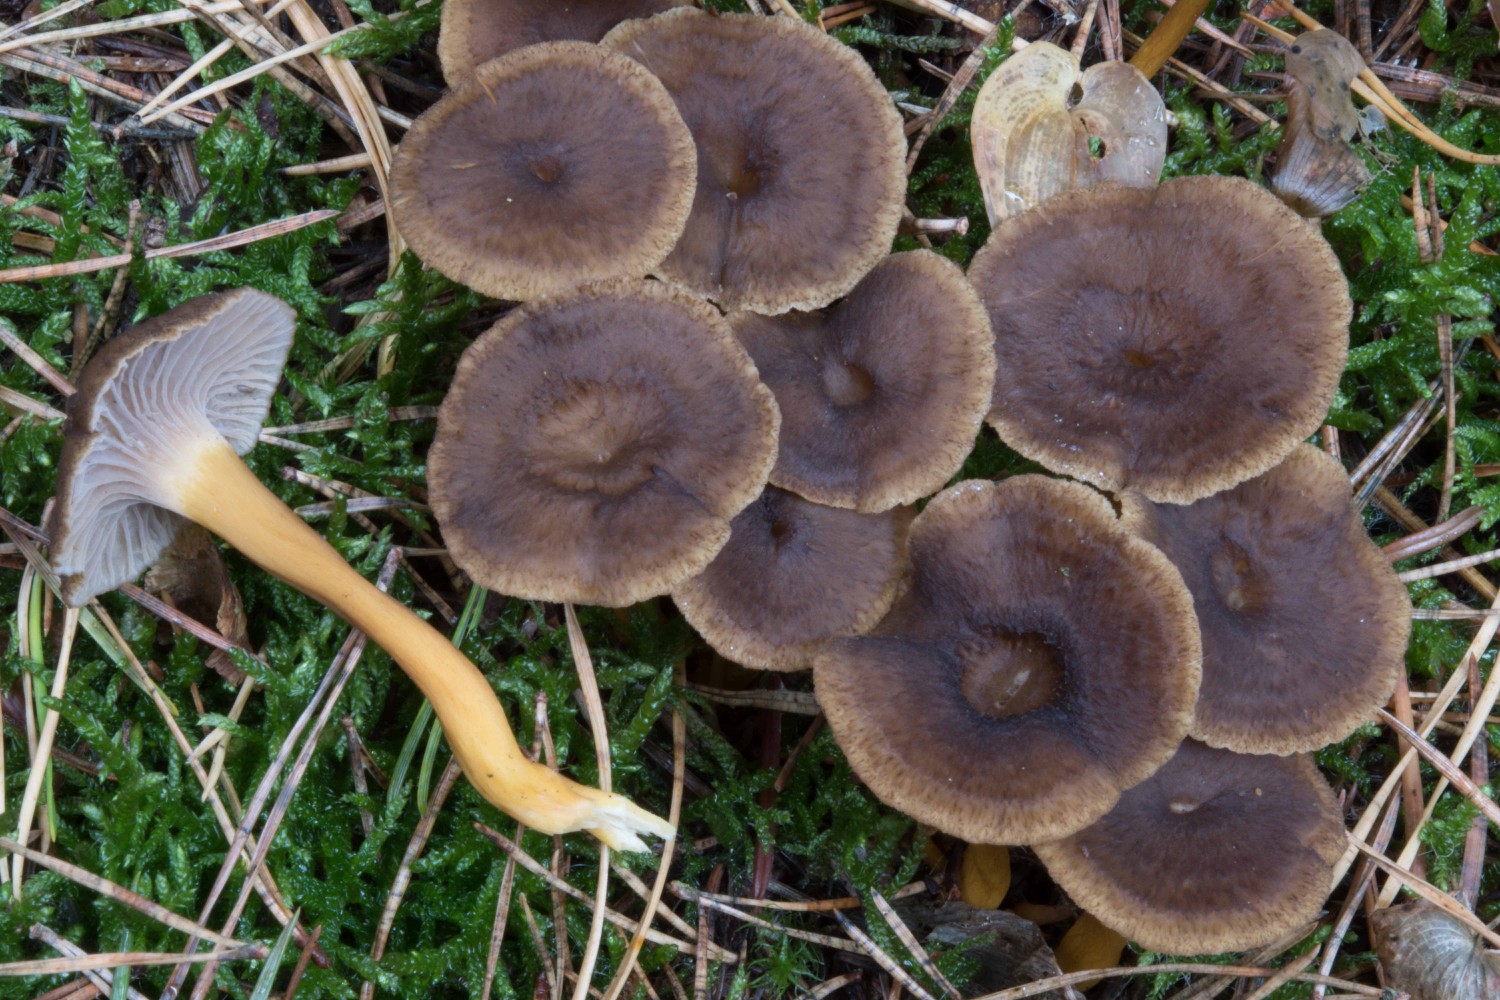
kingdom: Fungi
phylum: Basidiomycota
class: Agaricomycetes
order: Cantharellales
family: Hydnaceae
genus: Craterellus
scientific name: Craterellus tubaeformis
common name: tragt-kantarel
